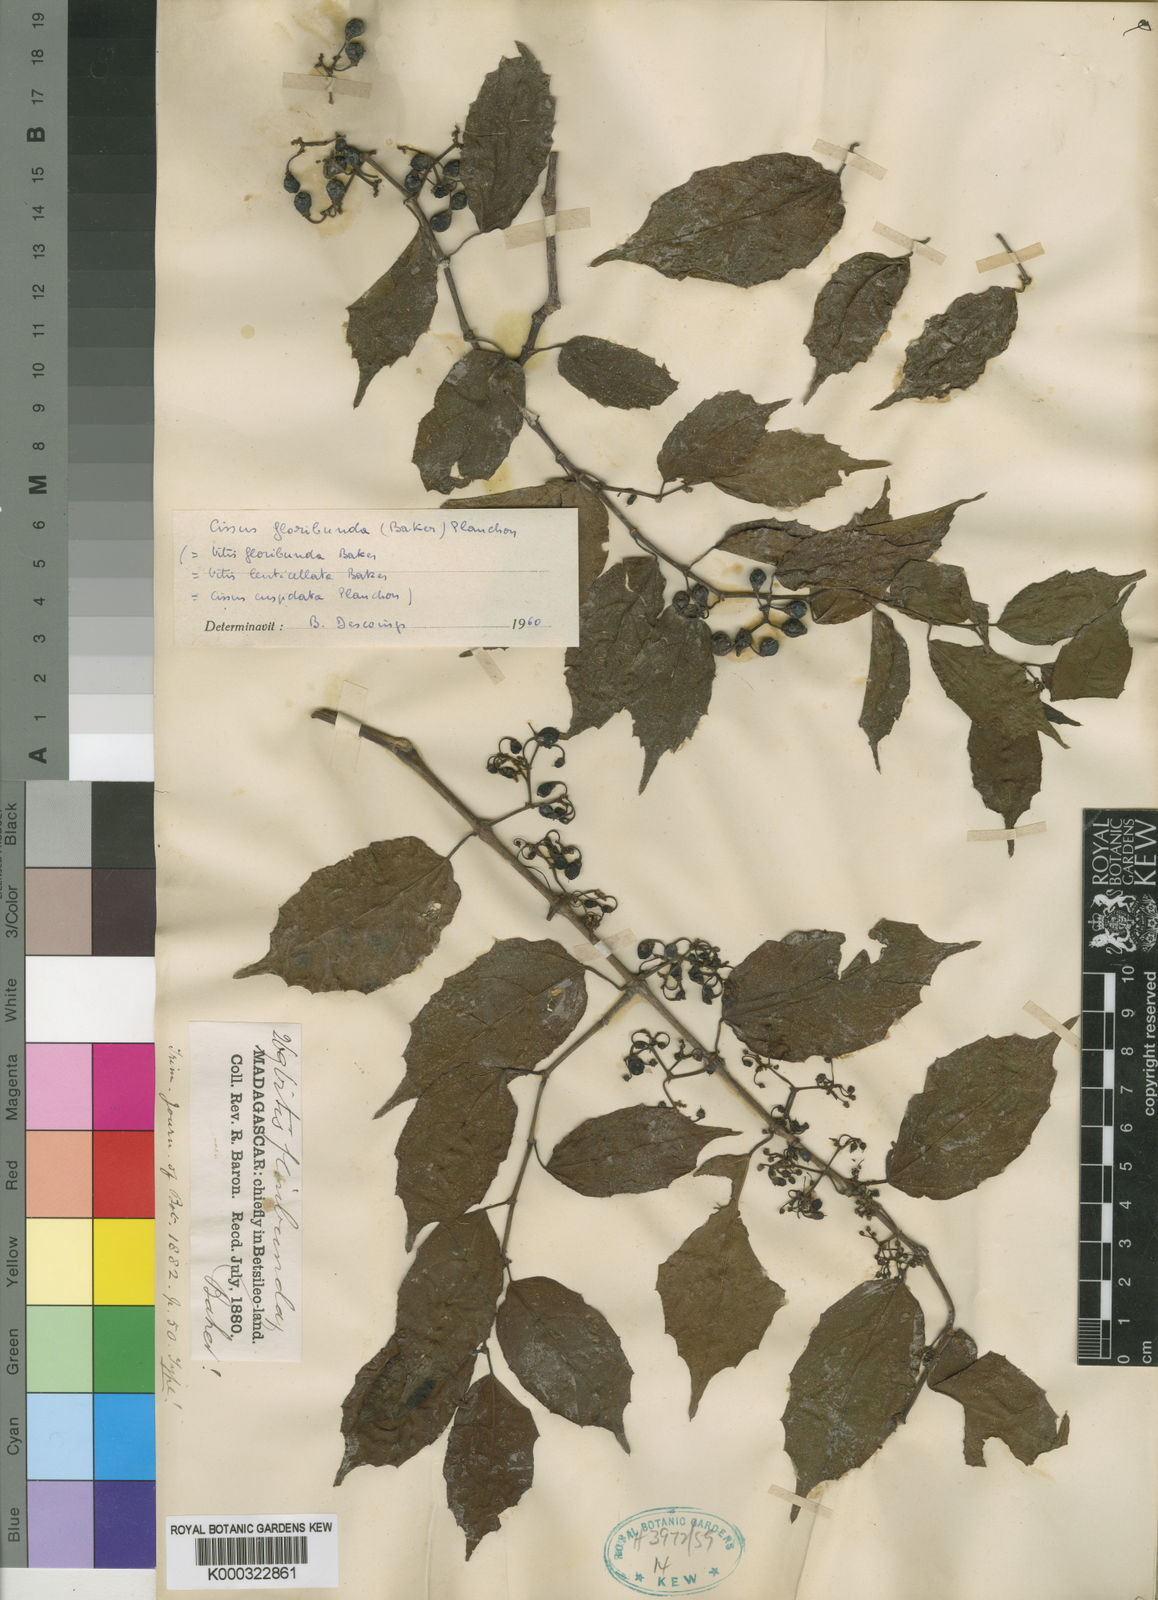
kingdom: Plantae
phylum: Tracheophyta
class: Magnoliopsida
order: Vitales
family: Vitaceae
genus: Cissus
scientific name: Cissus floribunda
